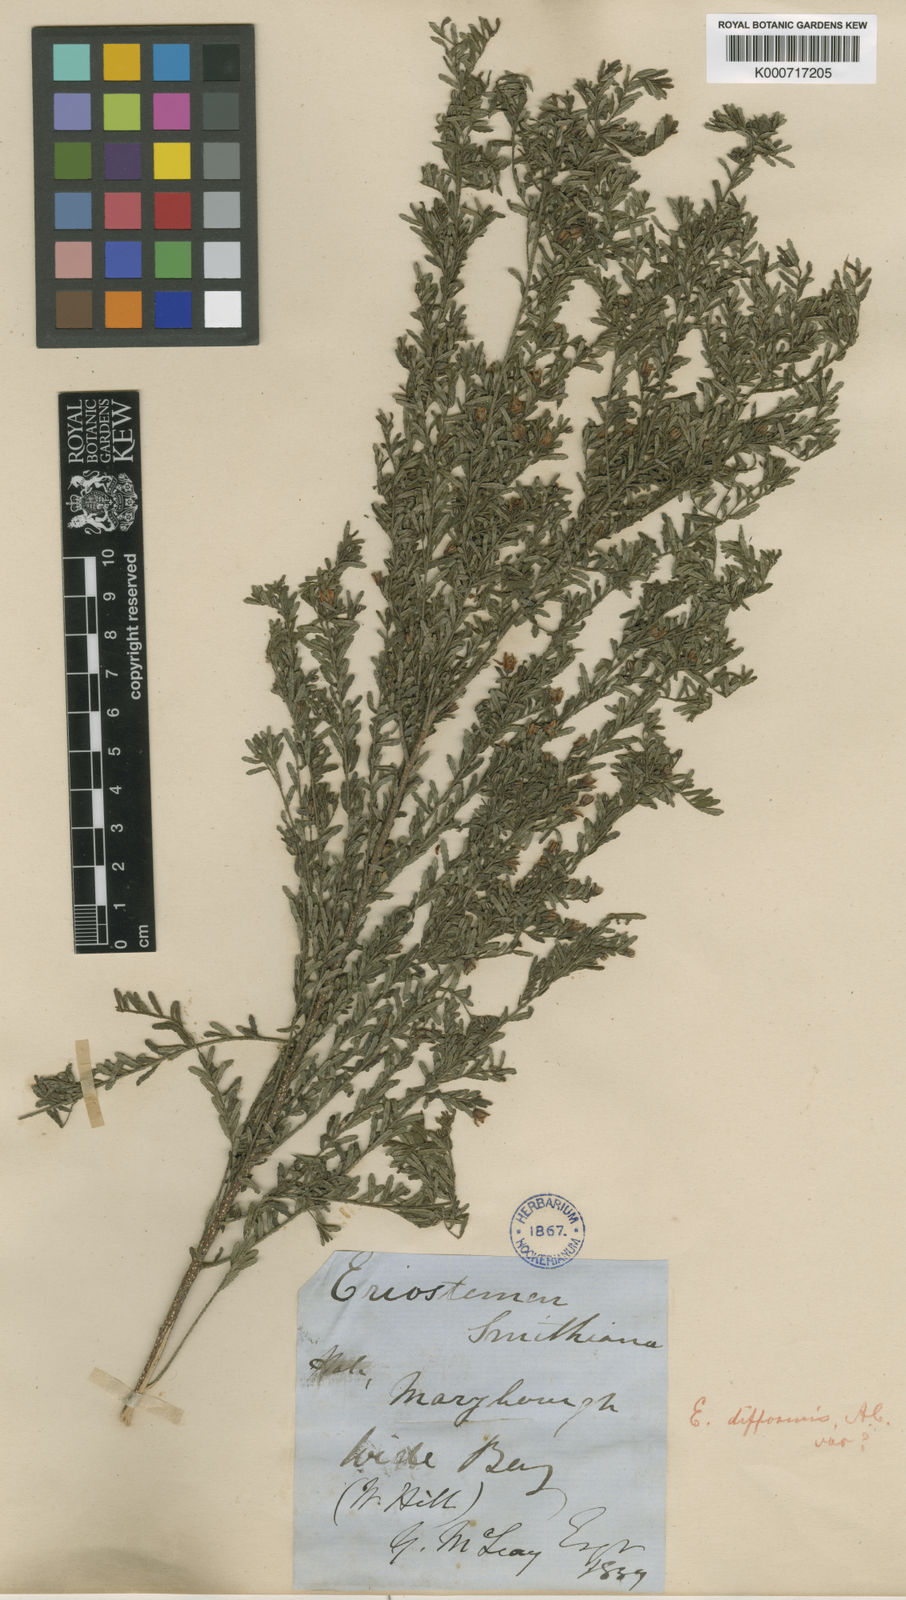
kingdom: Plantae
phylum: Tracheophyta
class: Magnoliopsida
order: Sapindales
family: Rutaceae
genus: Philotheca
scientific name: Philotheca difformis
